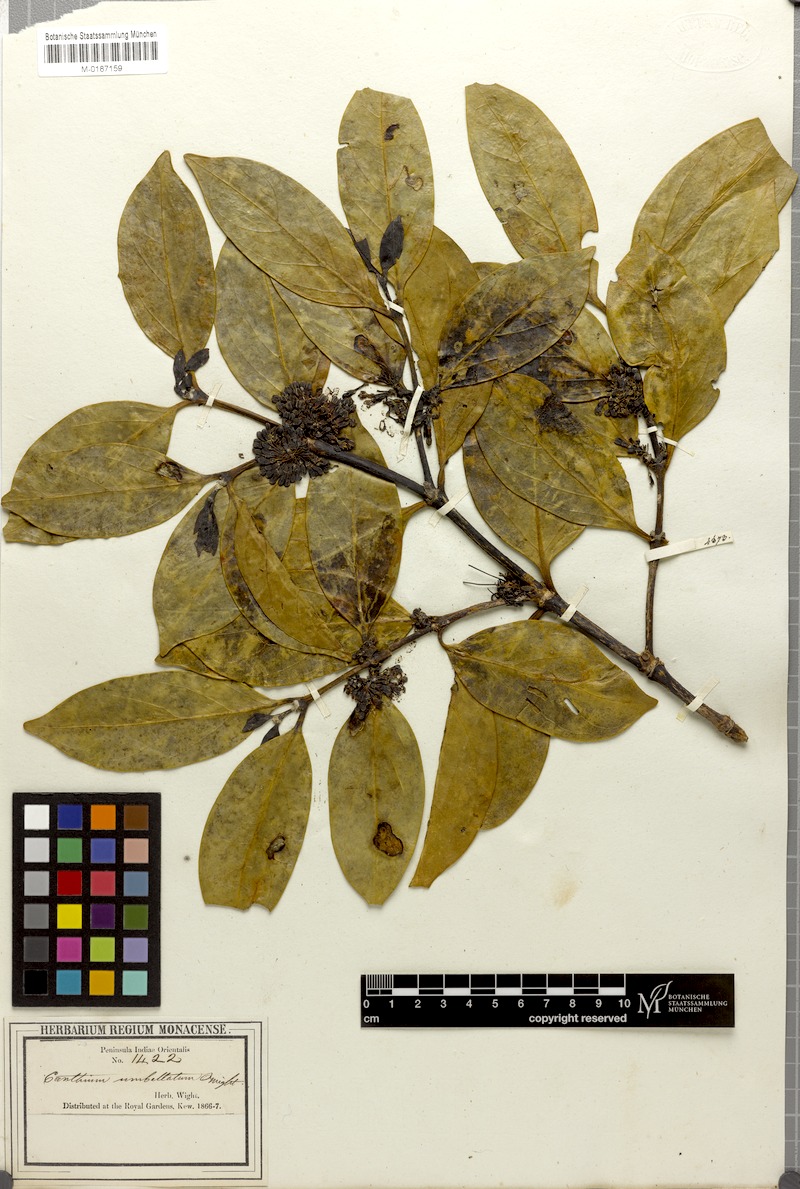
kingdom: Plantae
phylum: Tracheophyta
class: Magnoliopsida
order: Gentianales
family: Rubiaceae
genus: Psydrax
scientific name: Psydrax umbellatus
